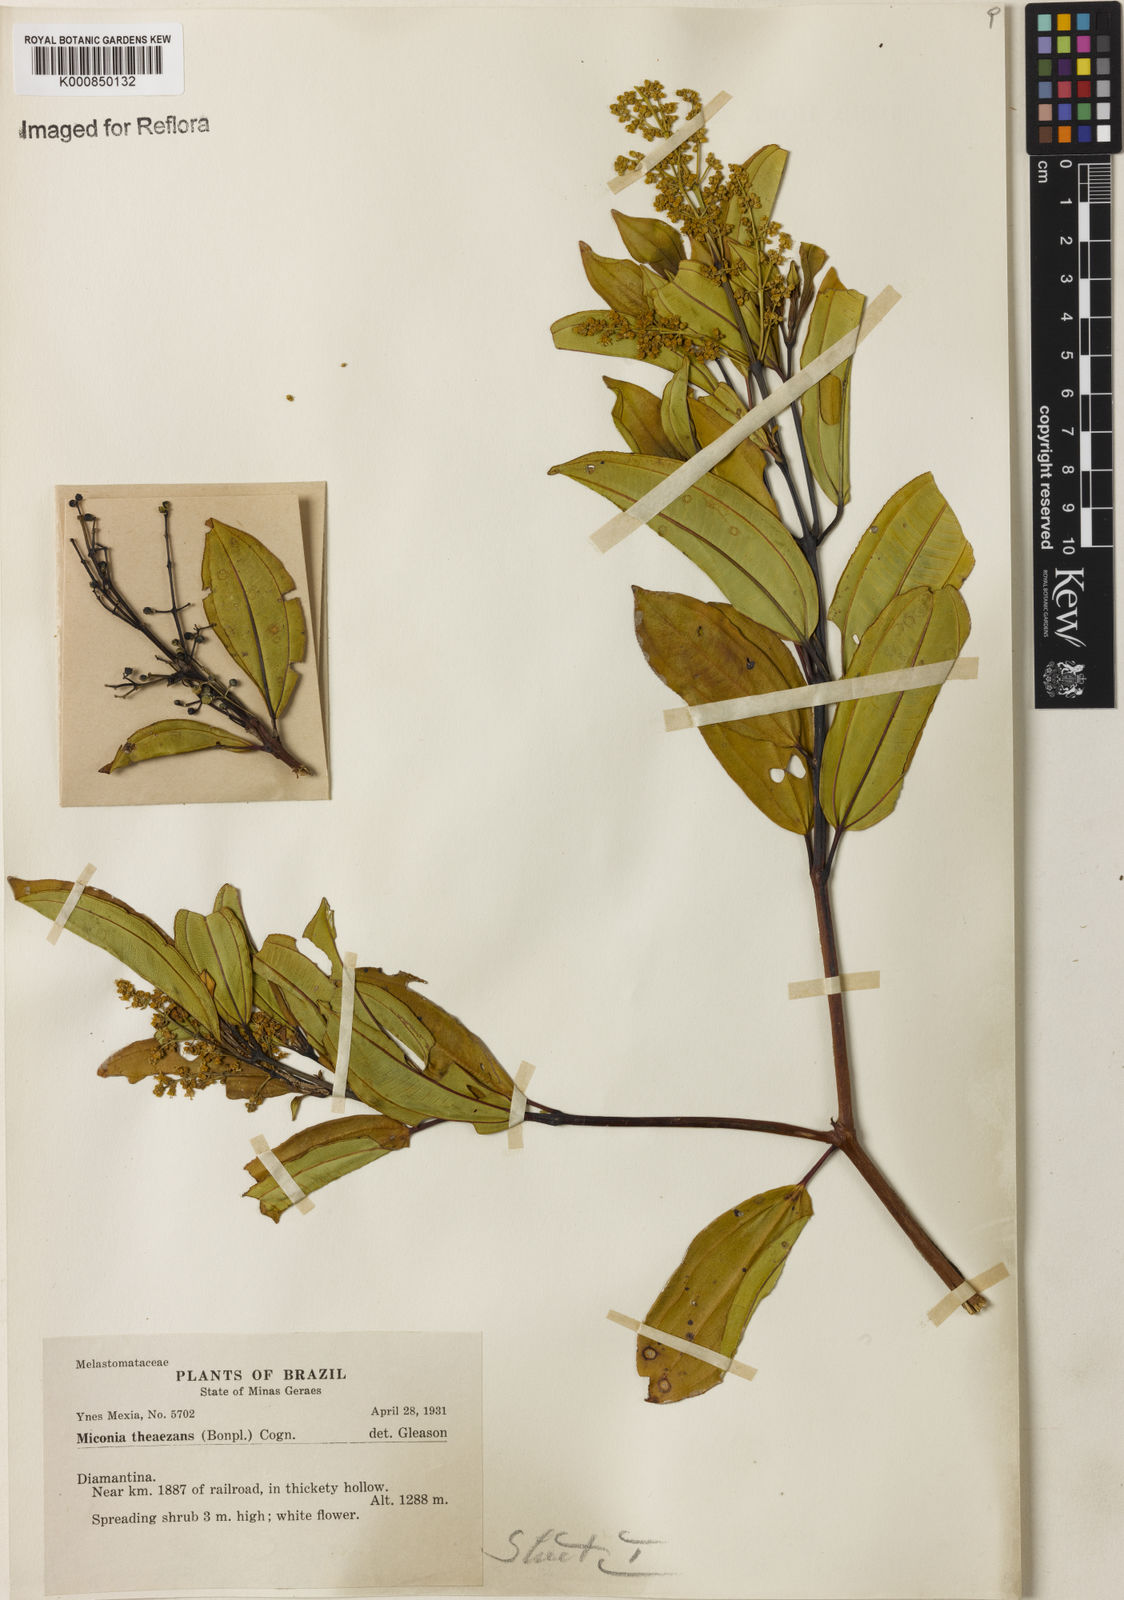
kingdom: Plantae
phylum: Tracheophyta
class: Magnoliopsida
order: Myrtales
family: Melastomataceae
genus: Miconia
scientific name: Miconia
